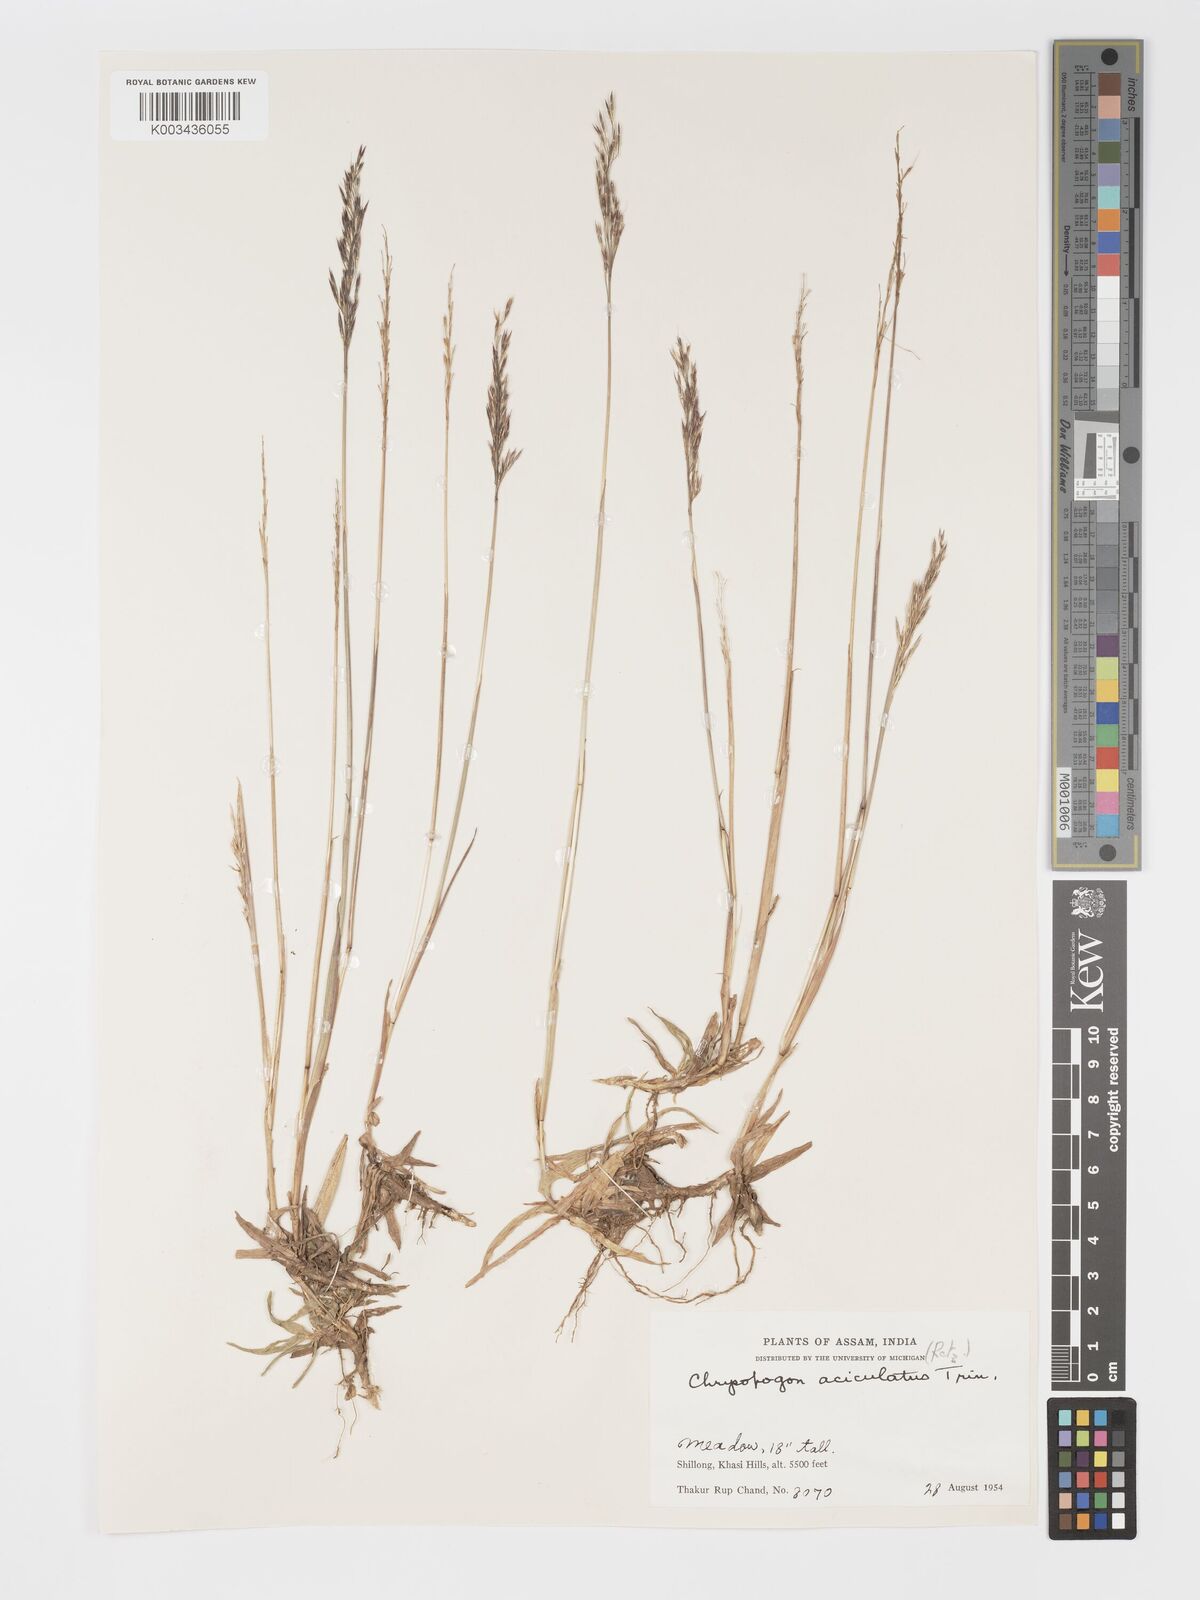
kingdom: Plantae
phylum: Tracheophyta
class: Liliopsida
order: Poales
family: Poaceae
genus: Chrysopogon
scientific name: Chrysopogon aciculatus
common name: Pilipiliula
